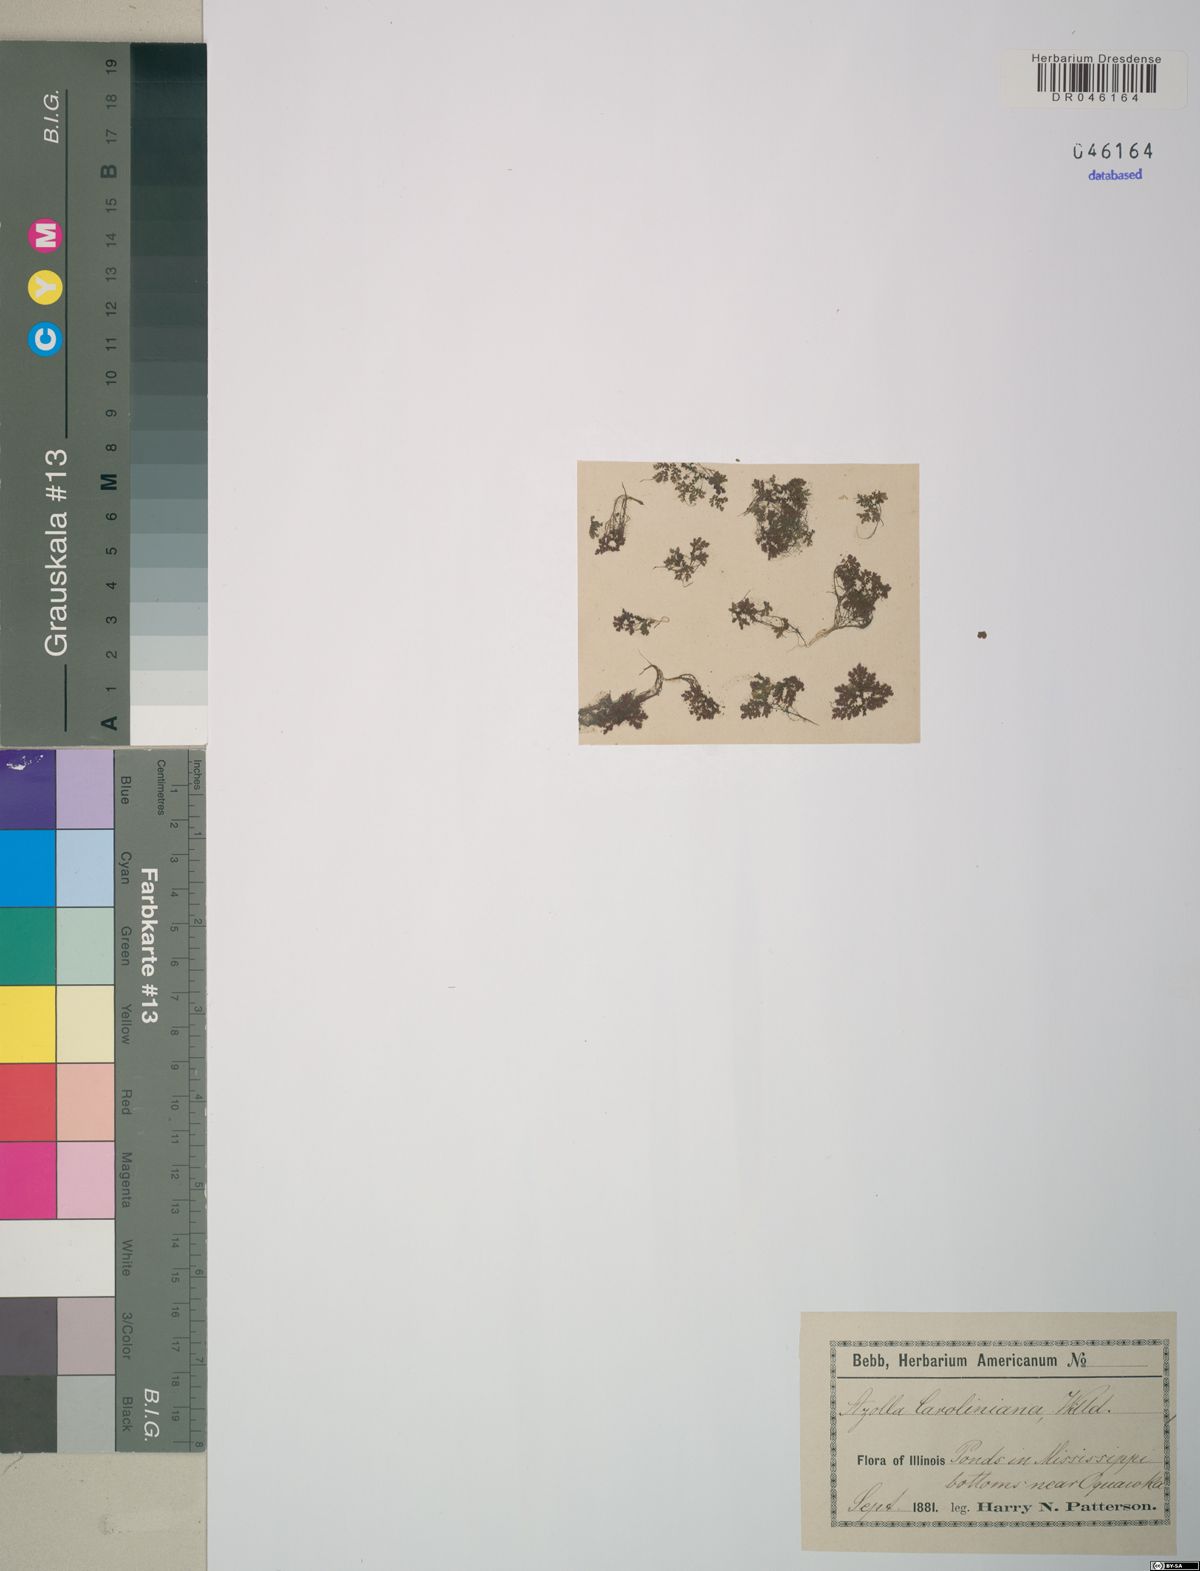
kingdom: Plantae
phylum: Tracheophyta
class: Polypodiopsida
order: Salviniales
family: Salviniaceae
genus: Azolla
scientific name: Azolla caroliniana
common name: Carolina mosquitofern
